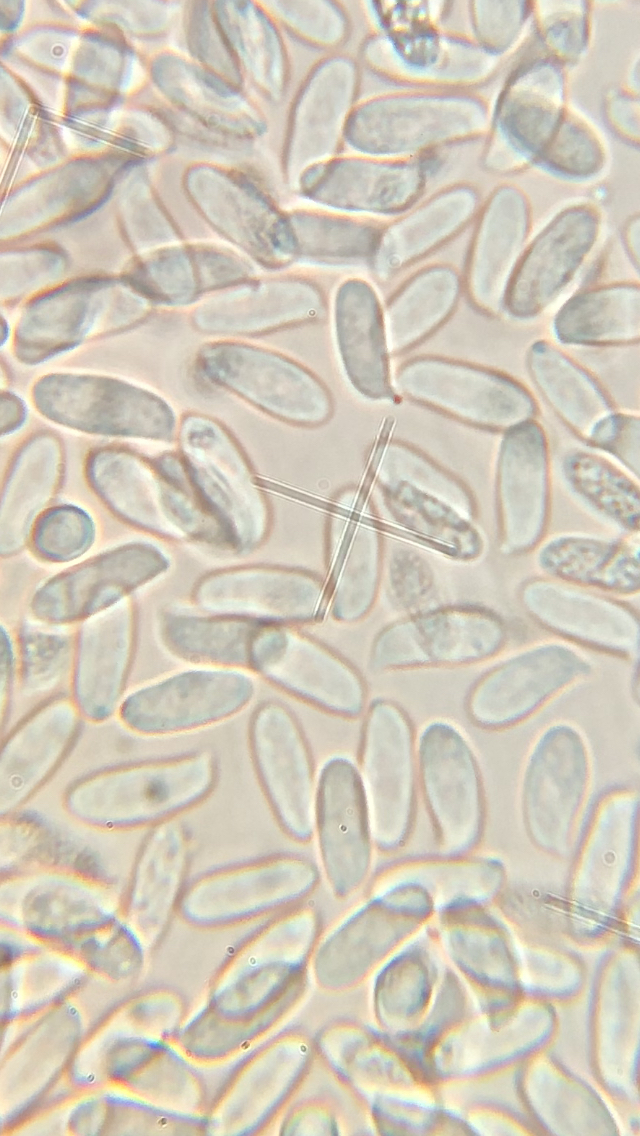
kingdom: Fungi
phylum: Basidiomycota
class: Agaricomycetes
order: Agaricales
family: Physalacriaceae
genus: Flammulina
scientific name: Flammulina
